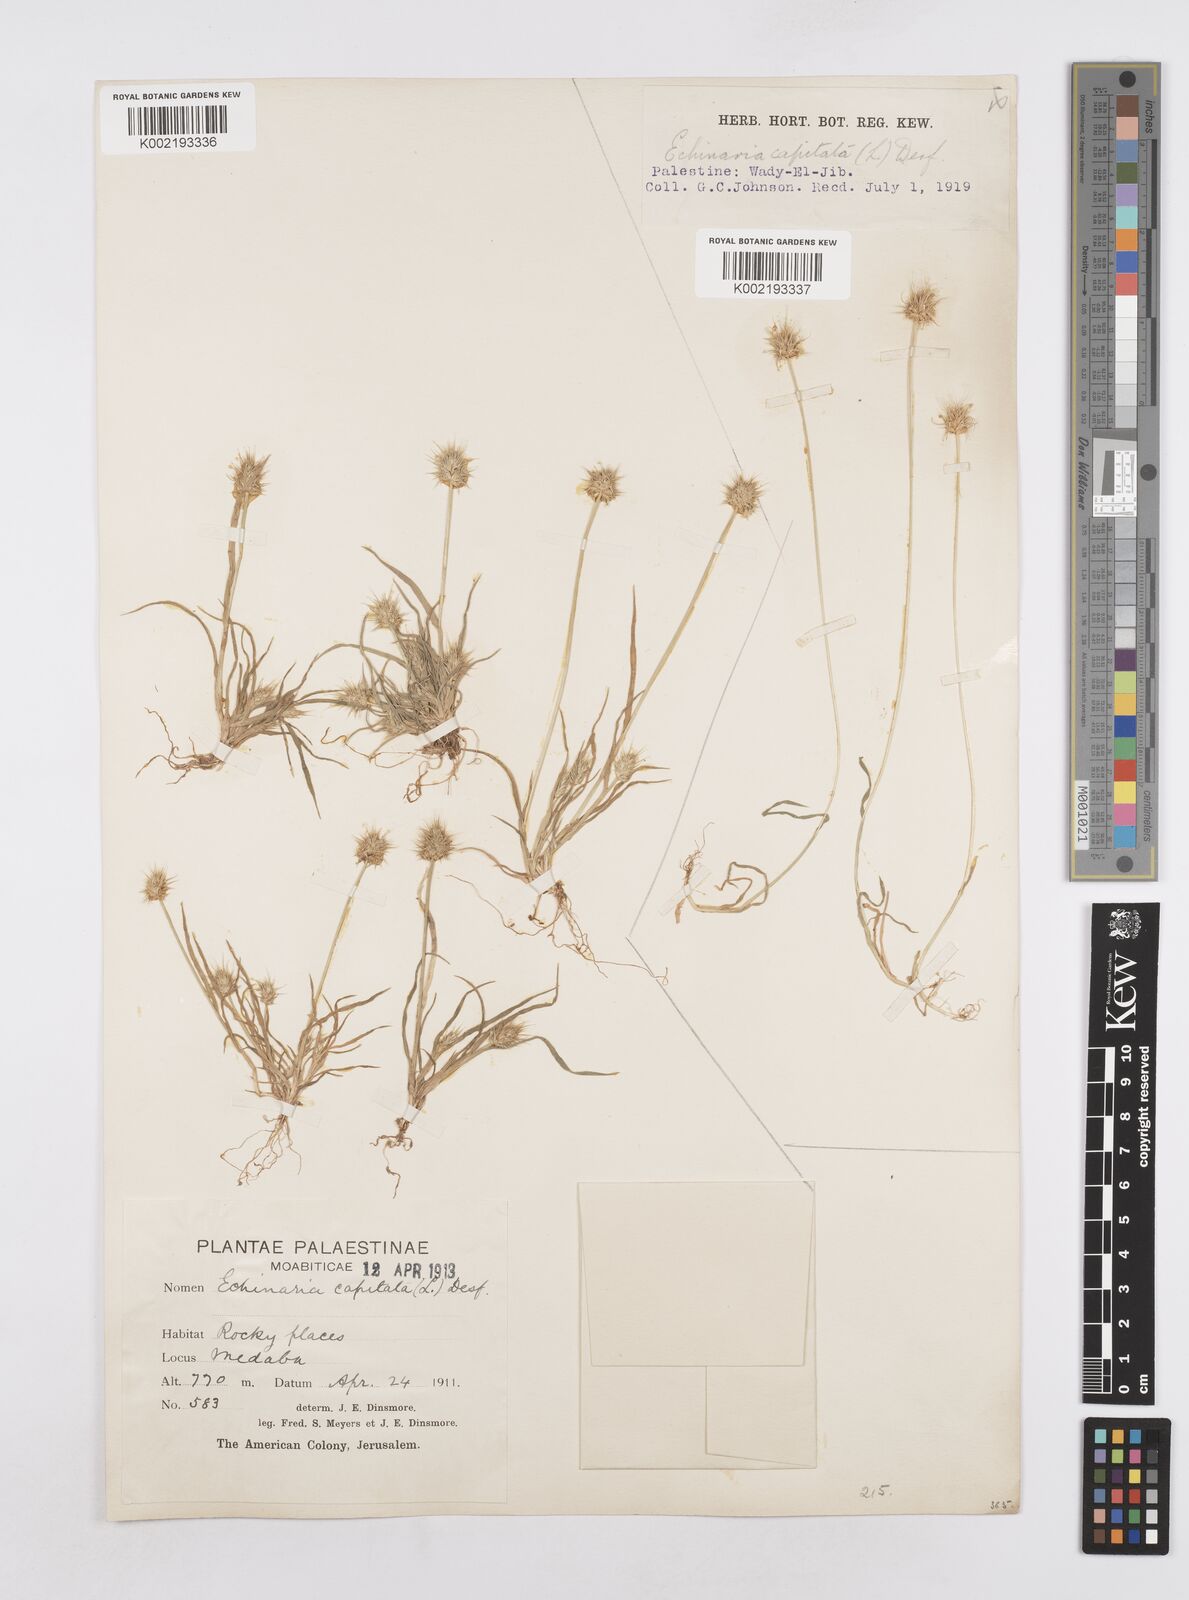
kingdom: Plantae
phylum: Tracheophyta
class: Liliopsida
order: Poales
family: Poaceae
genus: Echinaria
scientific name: Echinaria capitata
